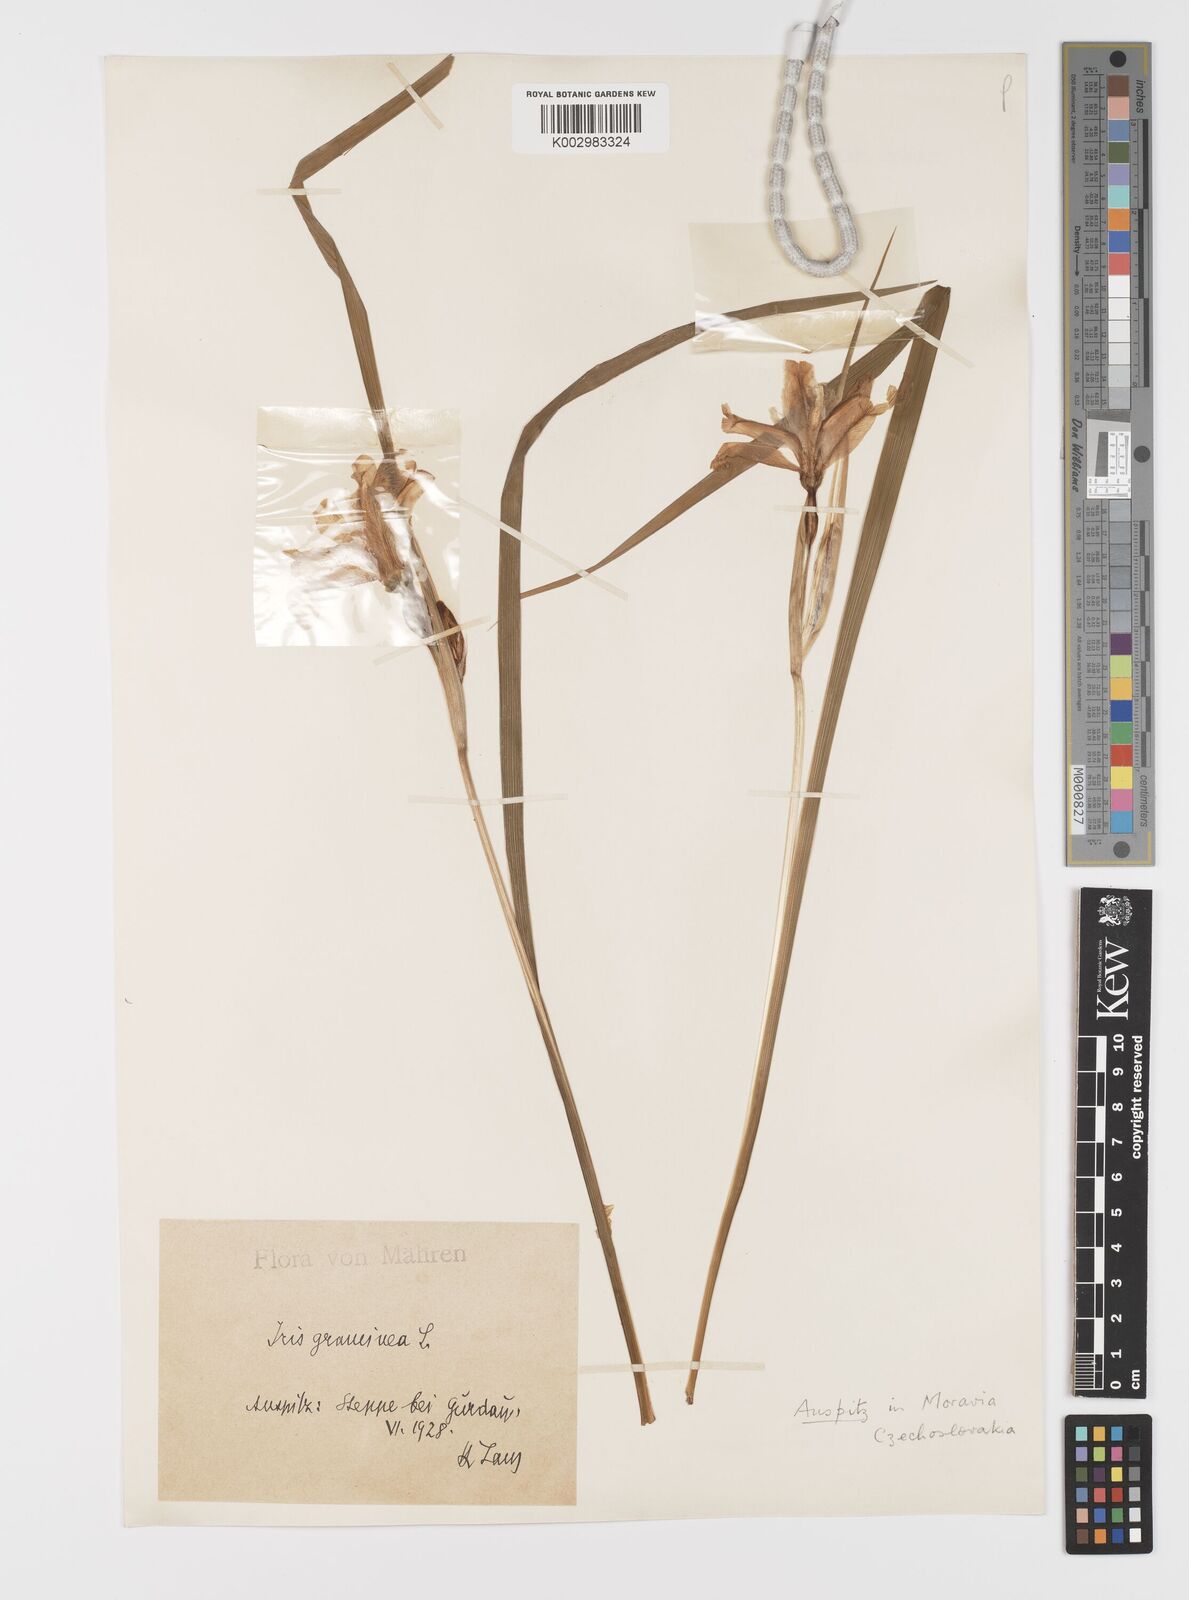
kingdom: Plantae
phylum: Tracheophyta
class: Liliopsida
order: Asparagales
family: Iridaceae
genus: Iris
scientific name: Iris graminea
